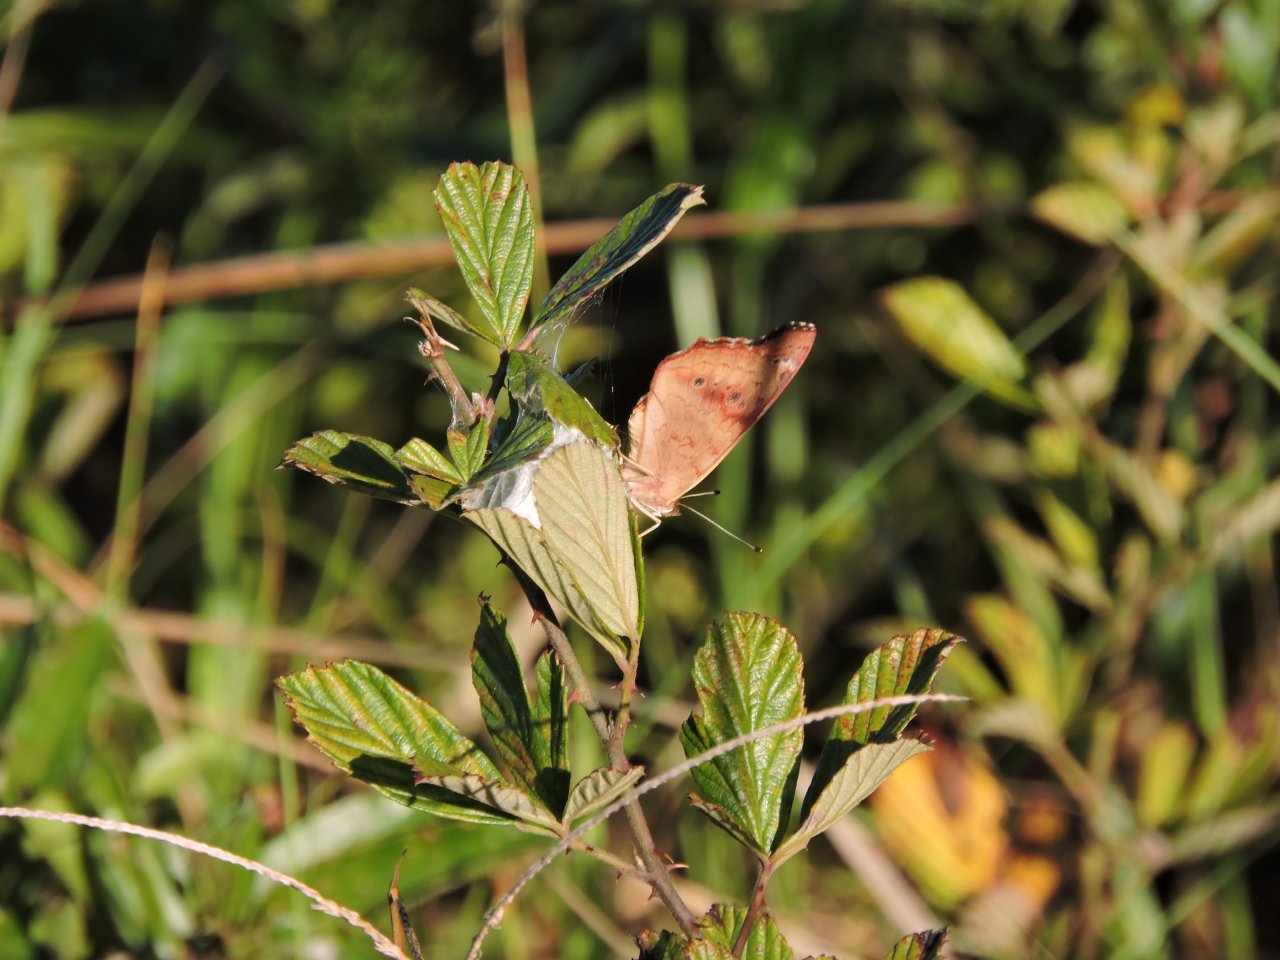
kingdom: Animalia
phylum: Arthropoda
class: Insecta
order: Lepidoptera
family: Nymphalidae
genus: Junonia
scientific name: Junonia coenia
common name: Common Buckeye
